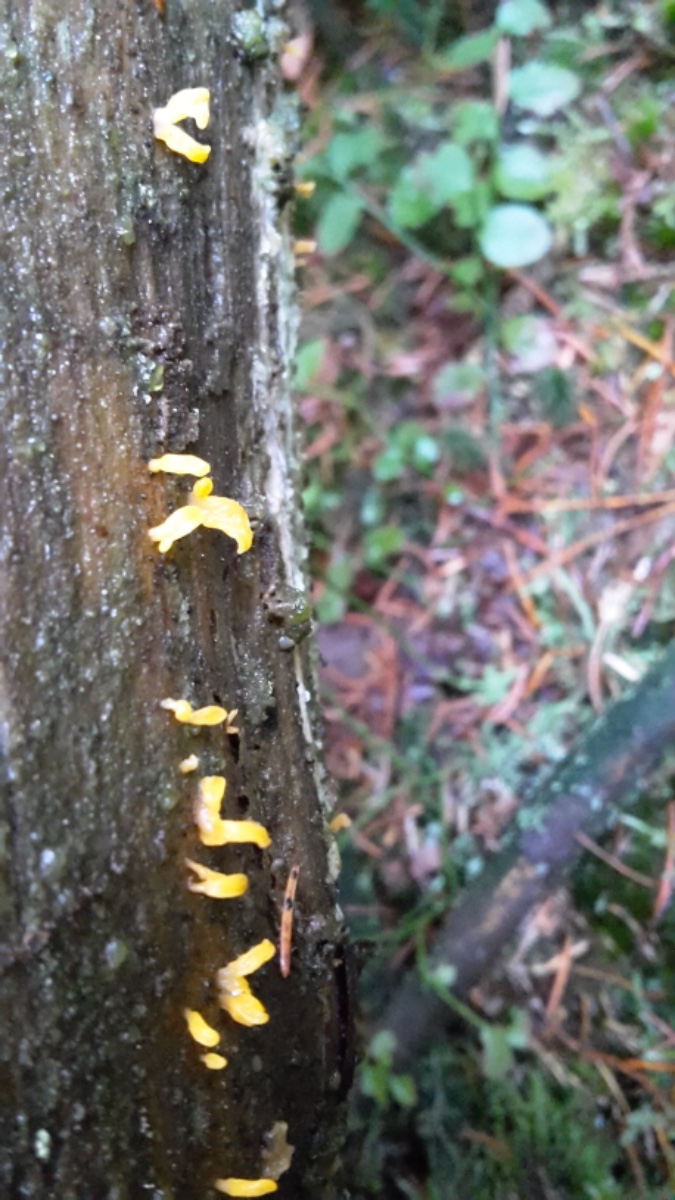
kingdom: Fungi
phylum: Basidiomycota
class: Dacrymycetes
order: Dacrymycetales
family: Dacrymycetaceae
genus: Calocera
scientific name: Calocera cornea
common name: liden guldgaffel
